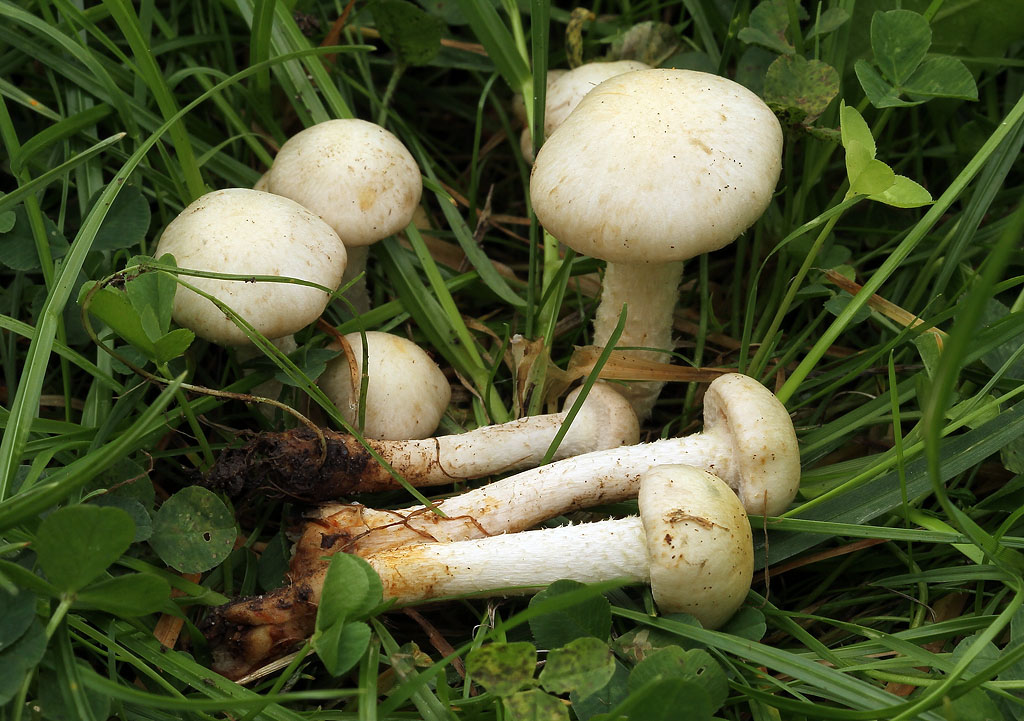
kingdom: Fungi
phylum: Basidiomycota
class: Agaricomycetes
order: Agaricales
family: Strophariaceae
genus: Pholiota
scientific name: Pholiota gummosa
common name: grøngul skælhat
